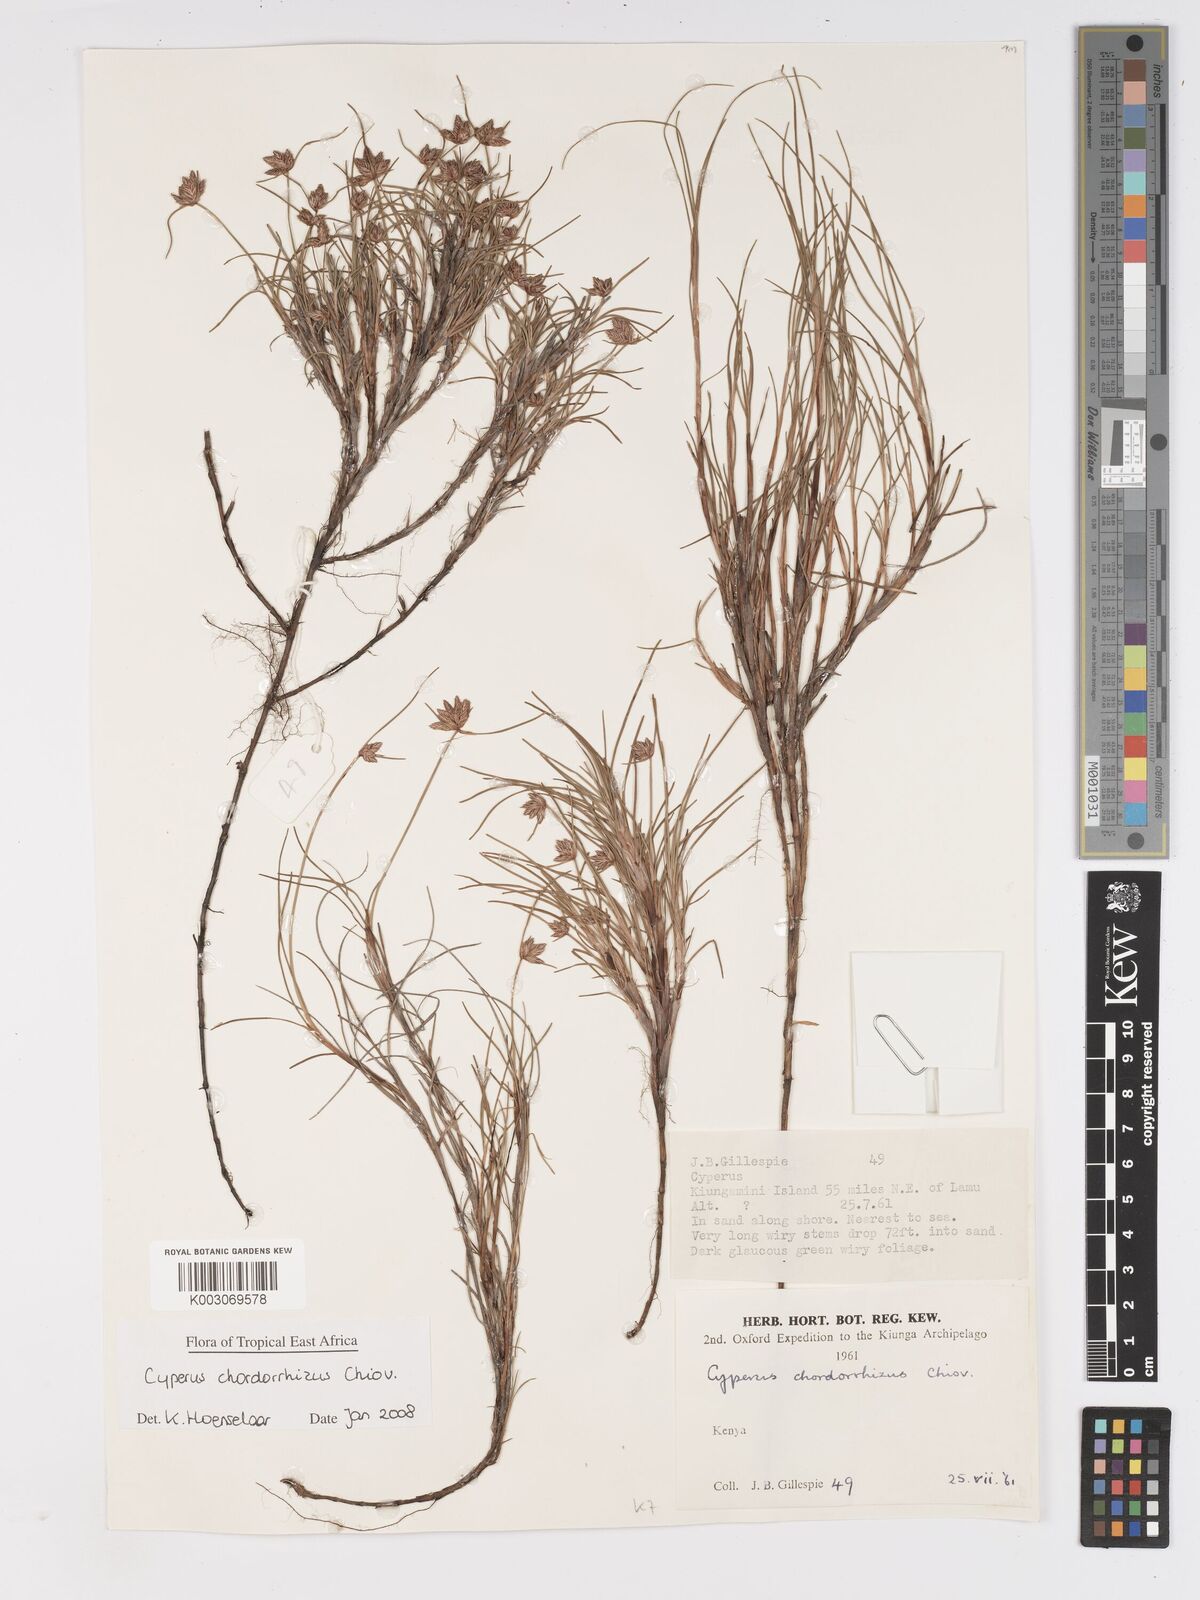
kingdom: Plantae
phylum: Tracheophyta
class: Liliopsida
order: Poales
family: Cyperaceae
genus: Cyperus
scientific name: Cyperus chordorrhizus
